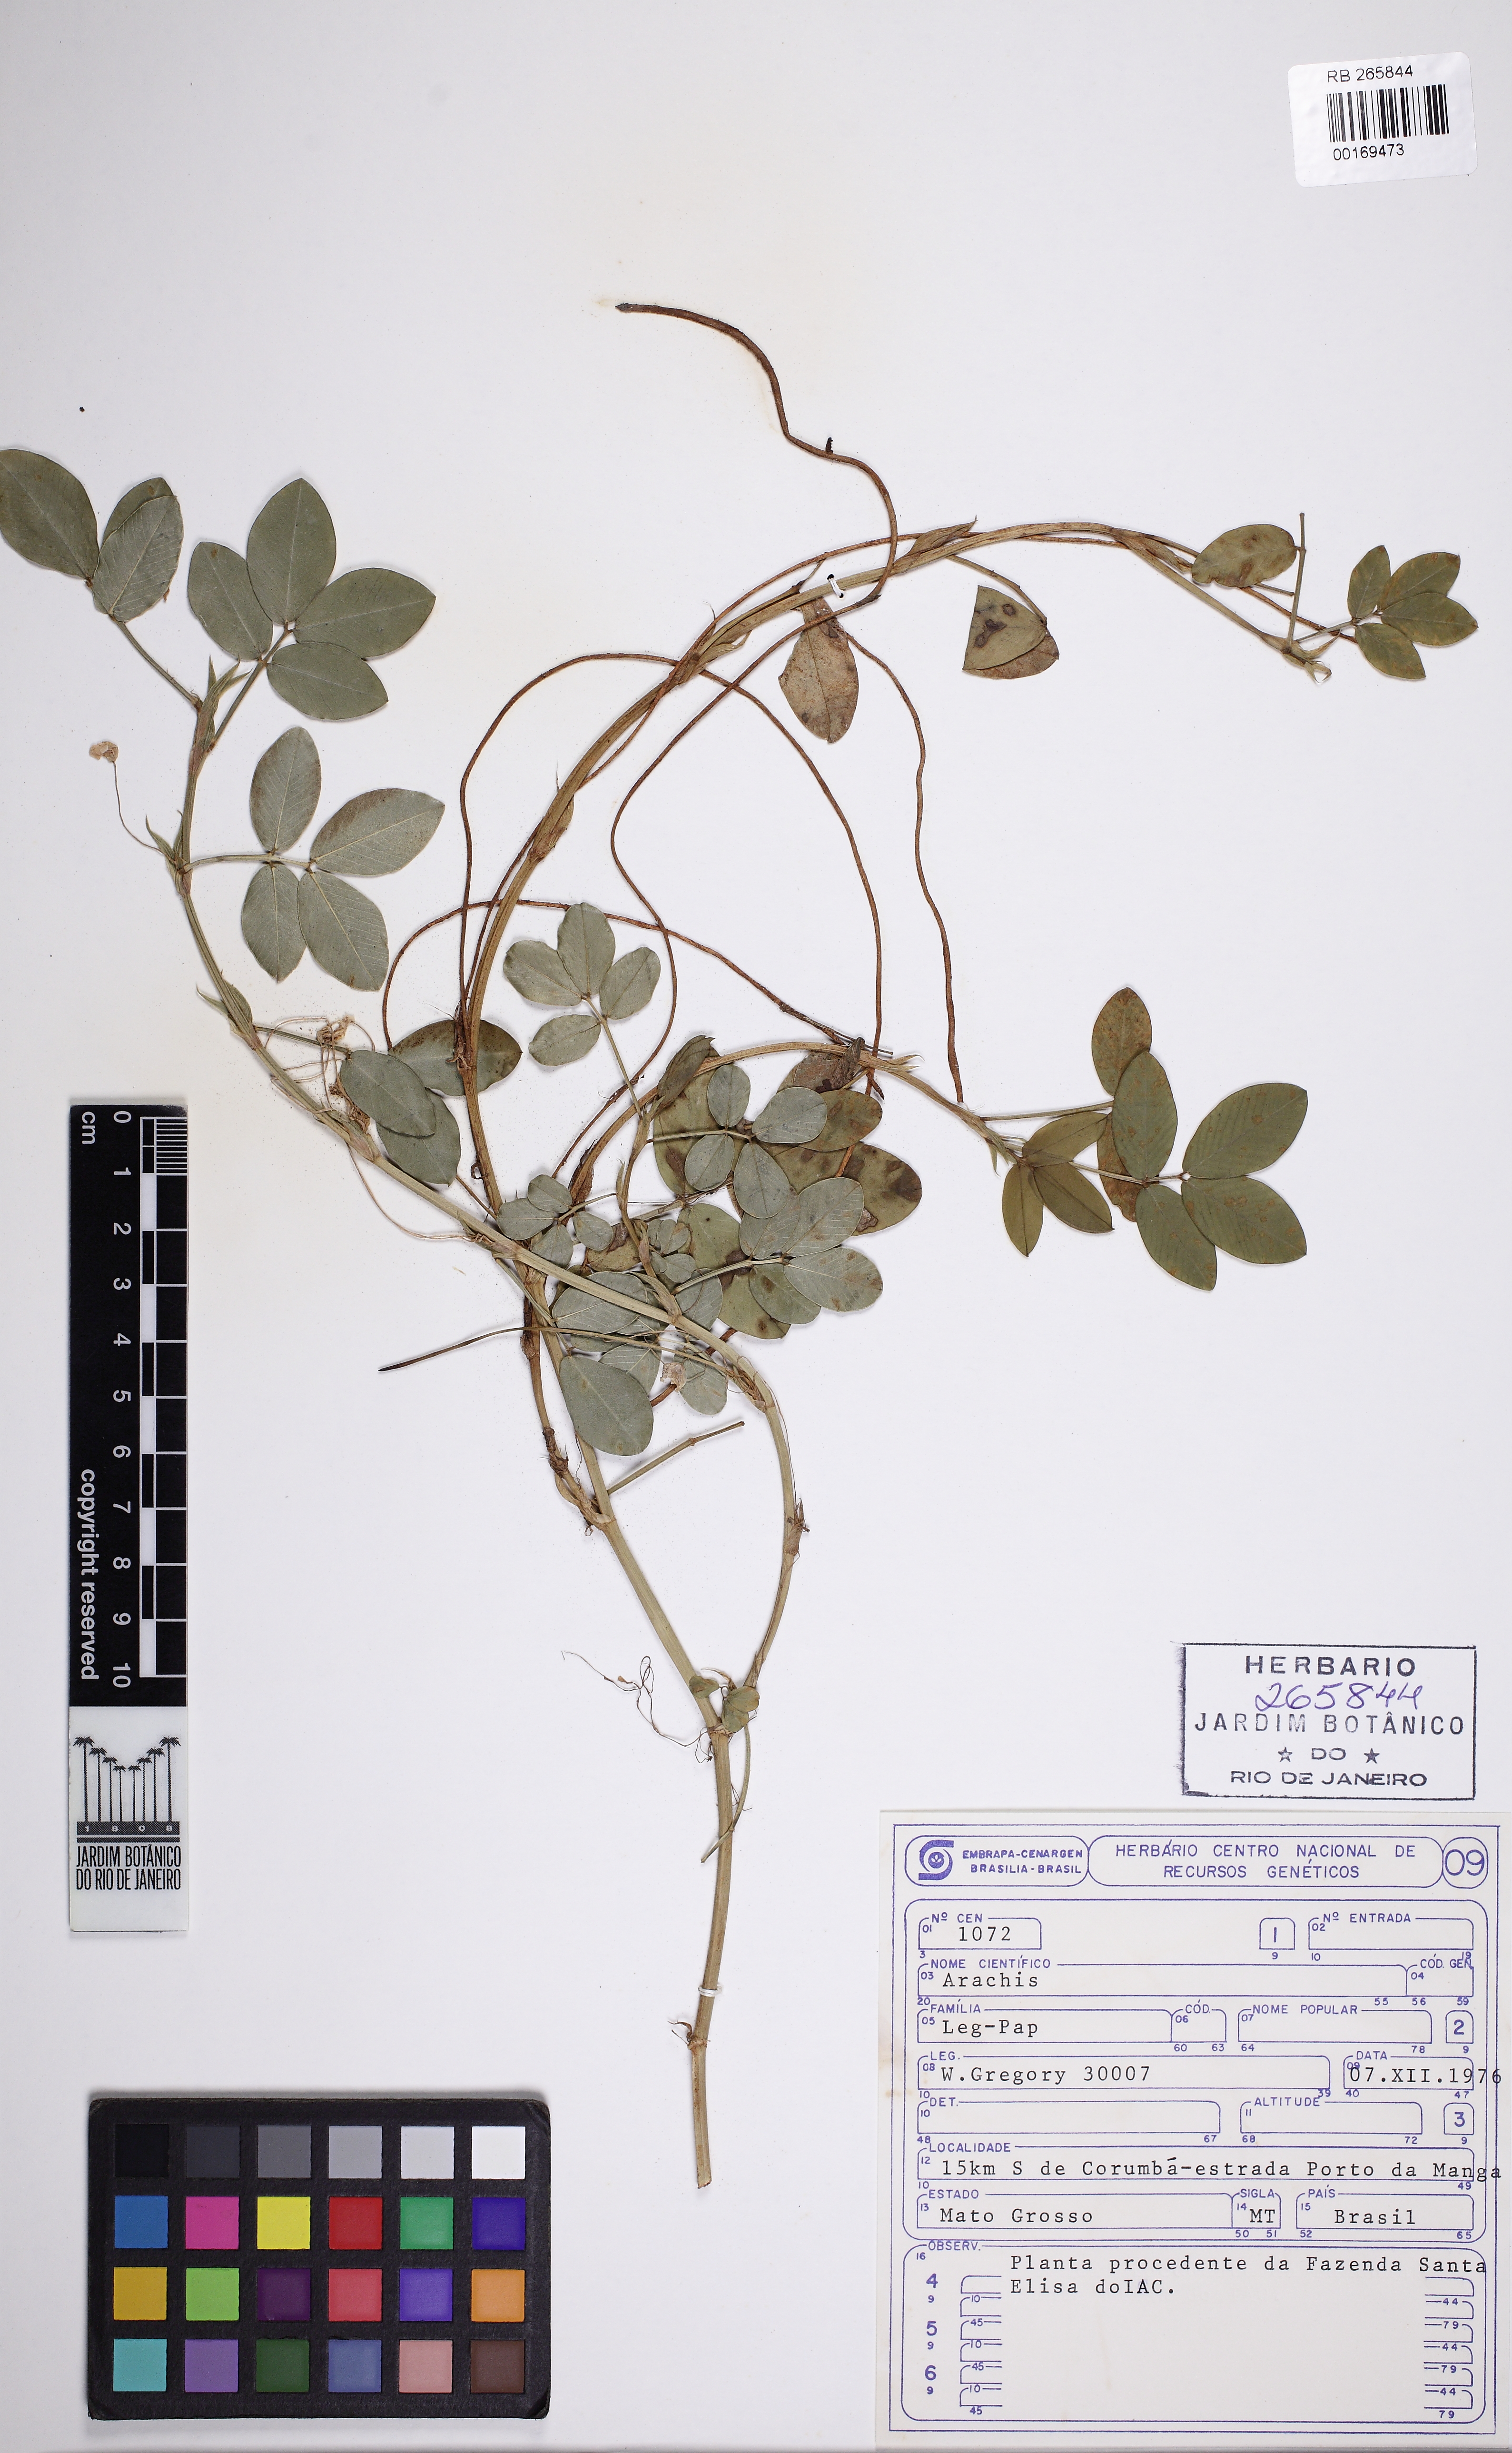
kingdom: Plantae
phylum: Tracheophyta
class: Magnoliopsida
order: Fabales
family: Fabaceae
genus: Arachis
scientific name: Arachis
